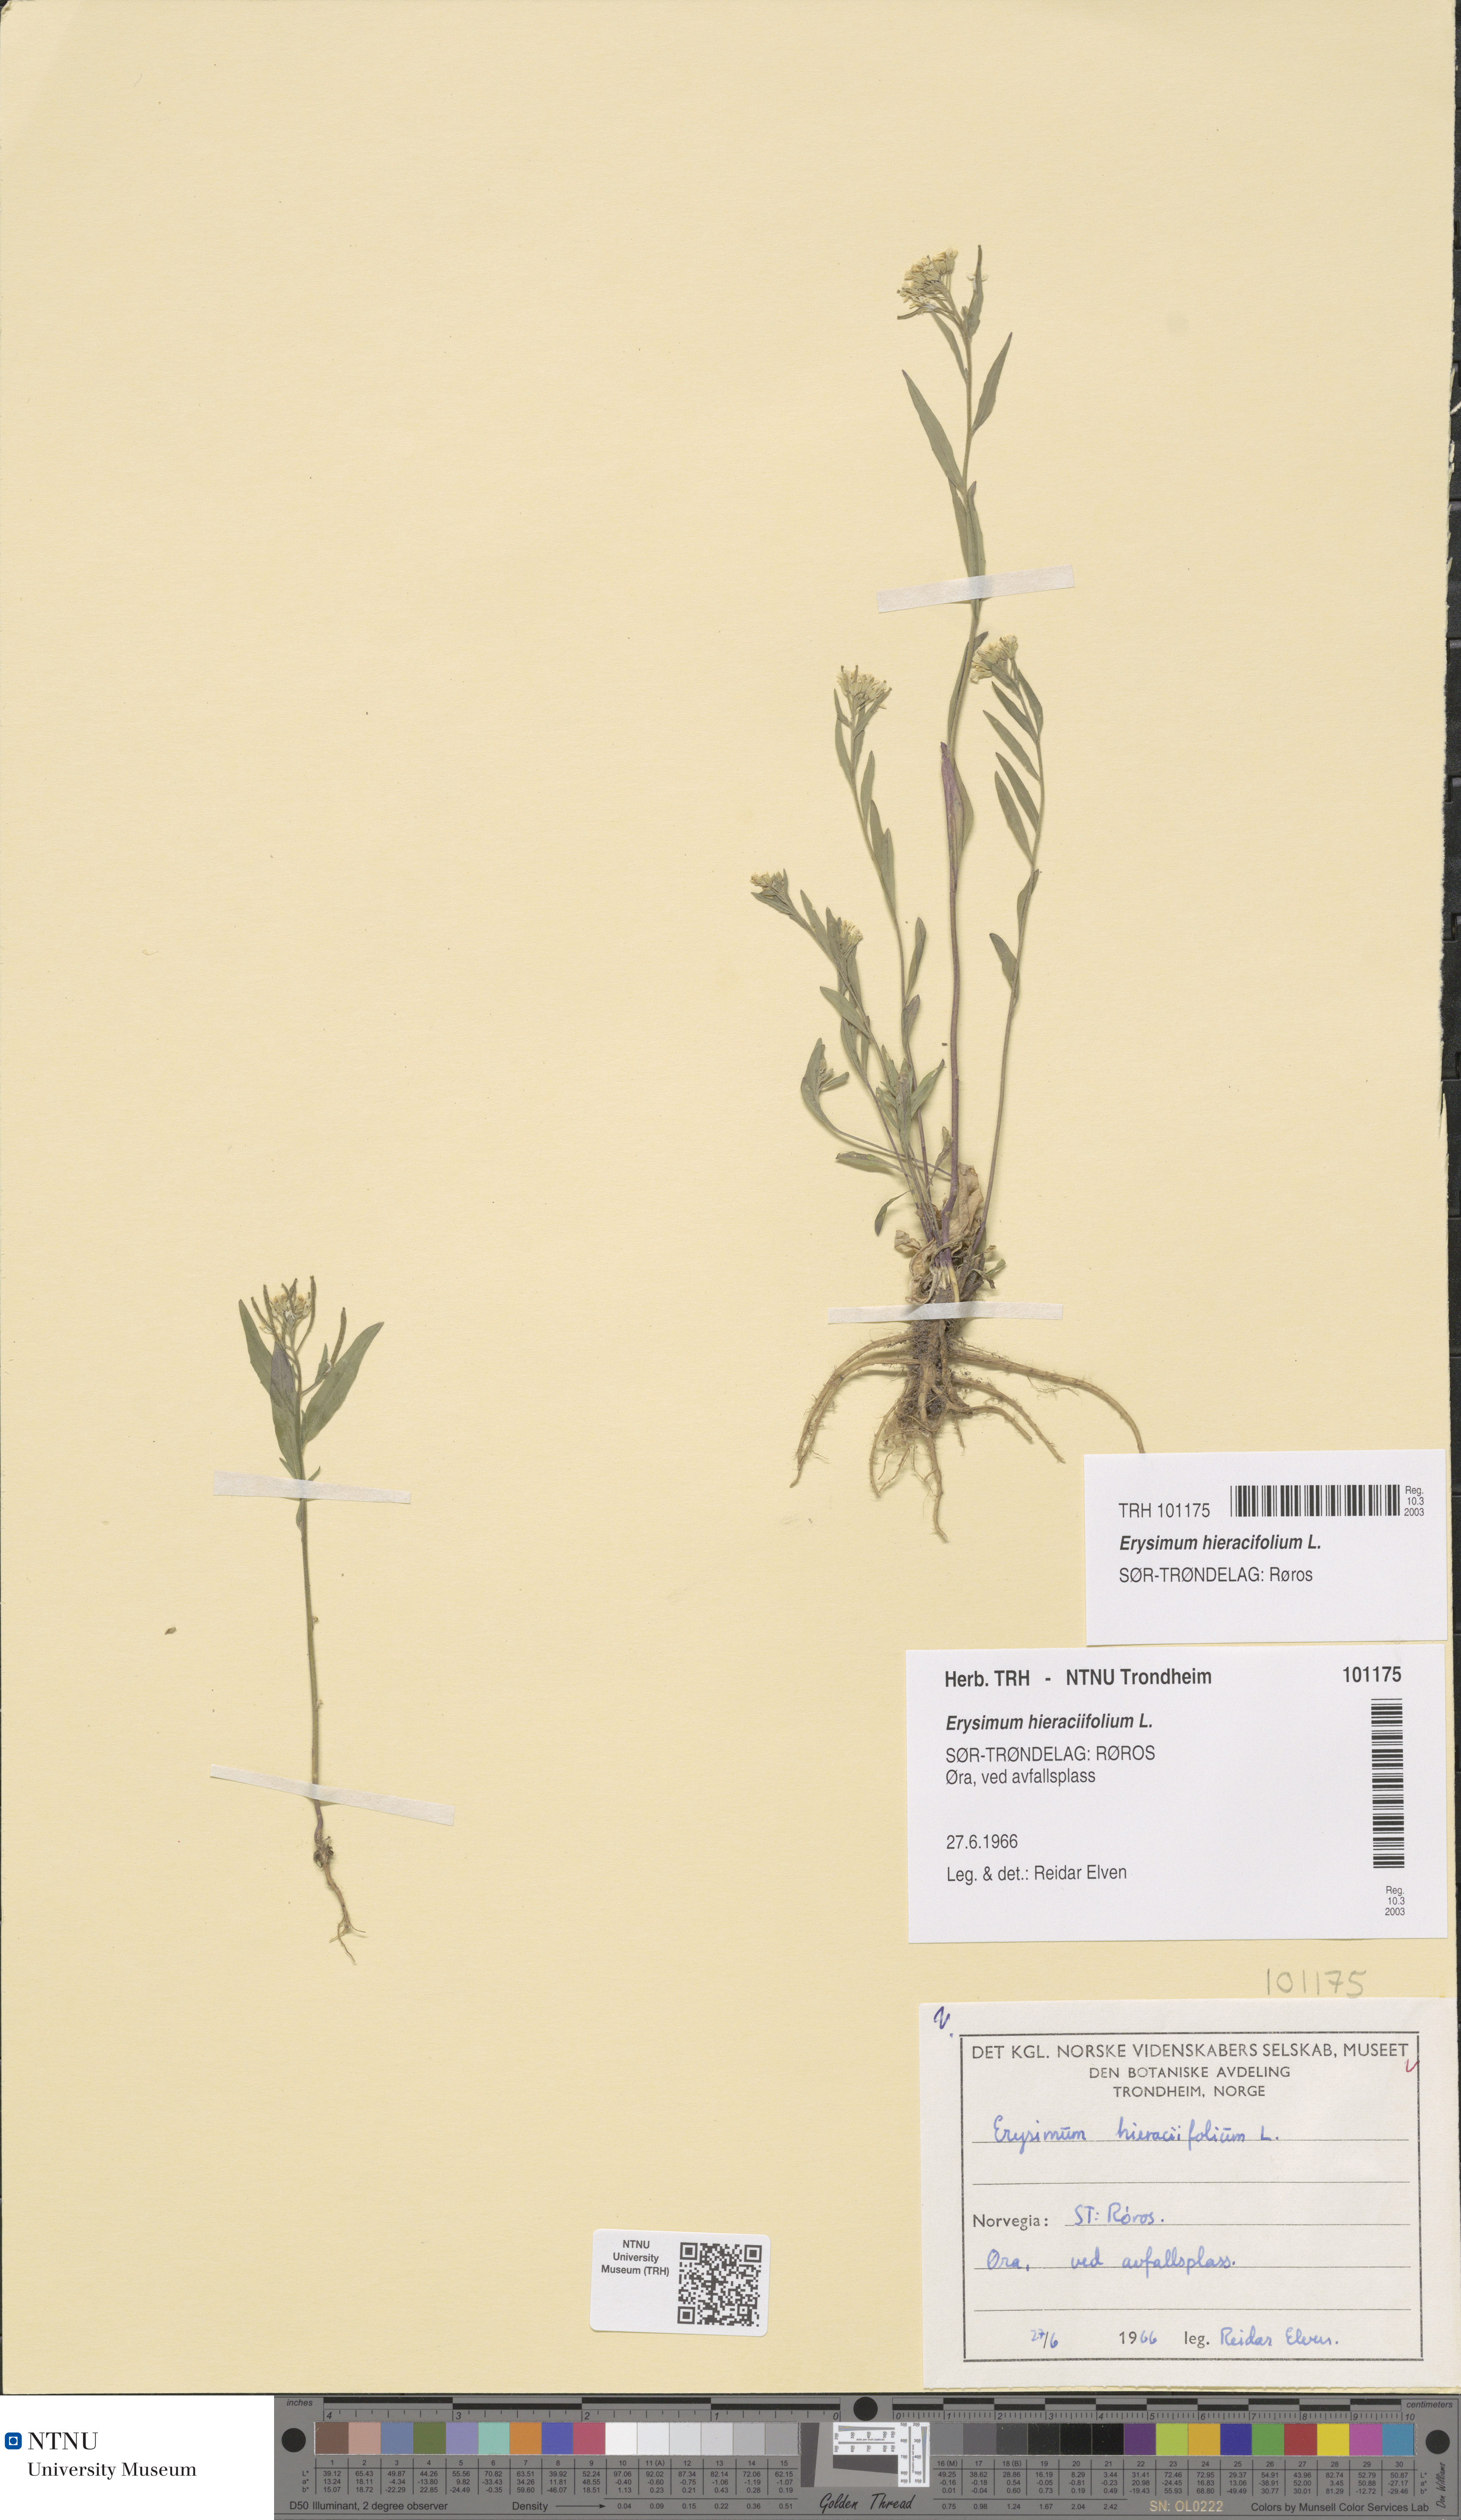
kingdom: Plantae
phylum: Tracheophyta
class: Magnoliopsida
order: Brassicales
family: Brassicaceae
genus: Erysimum
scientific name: Erysimum virgatum
